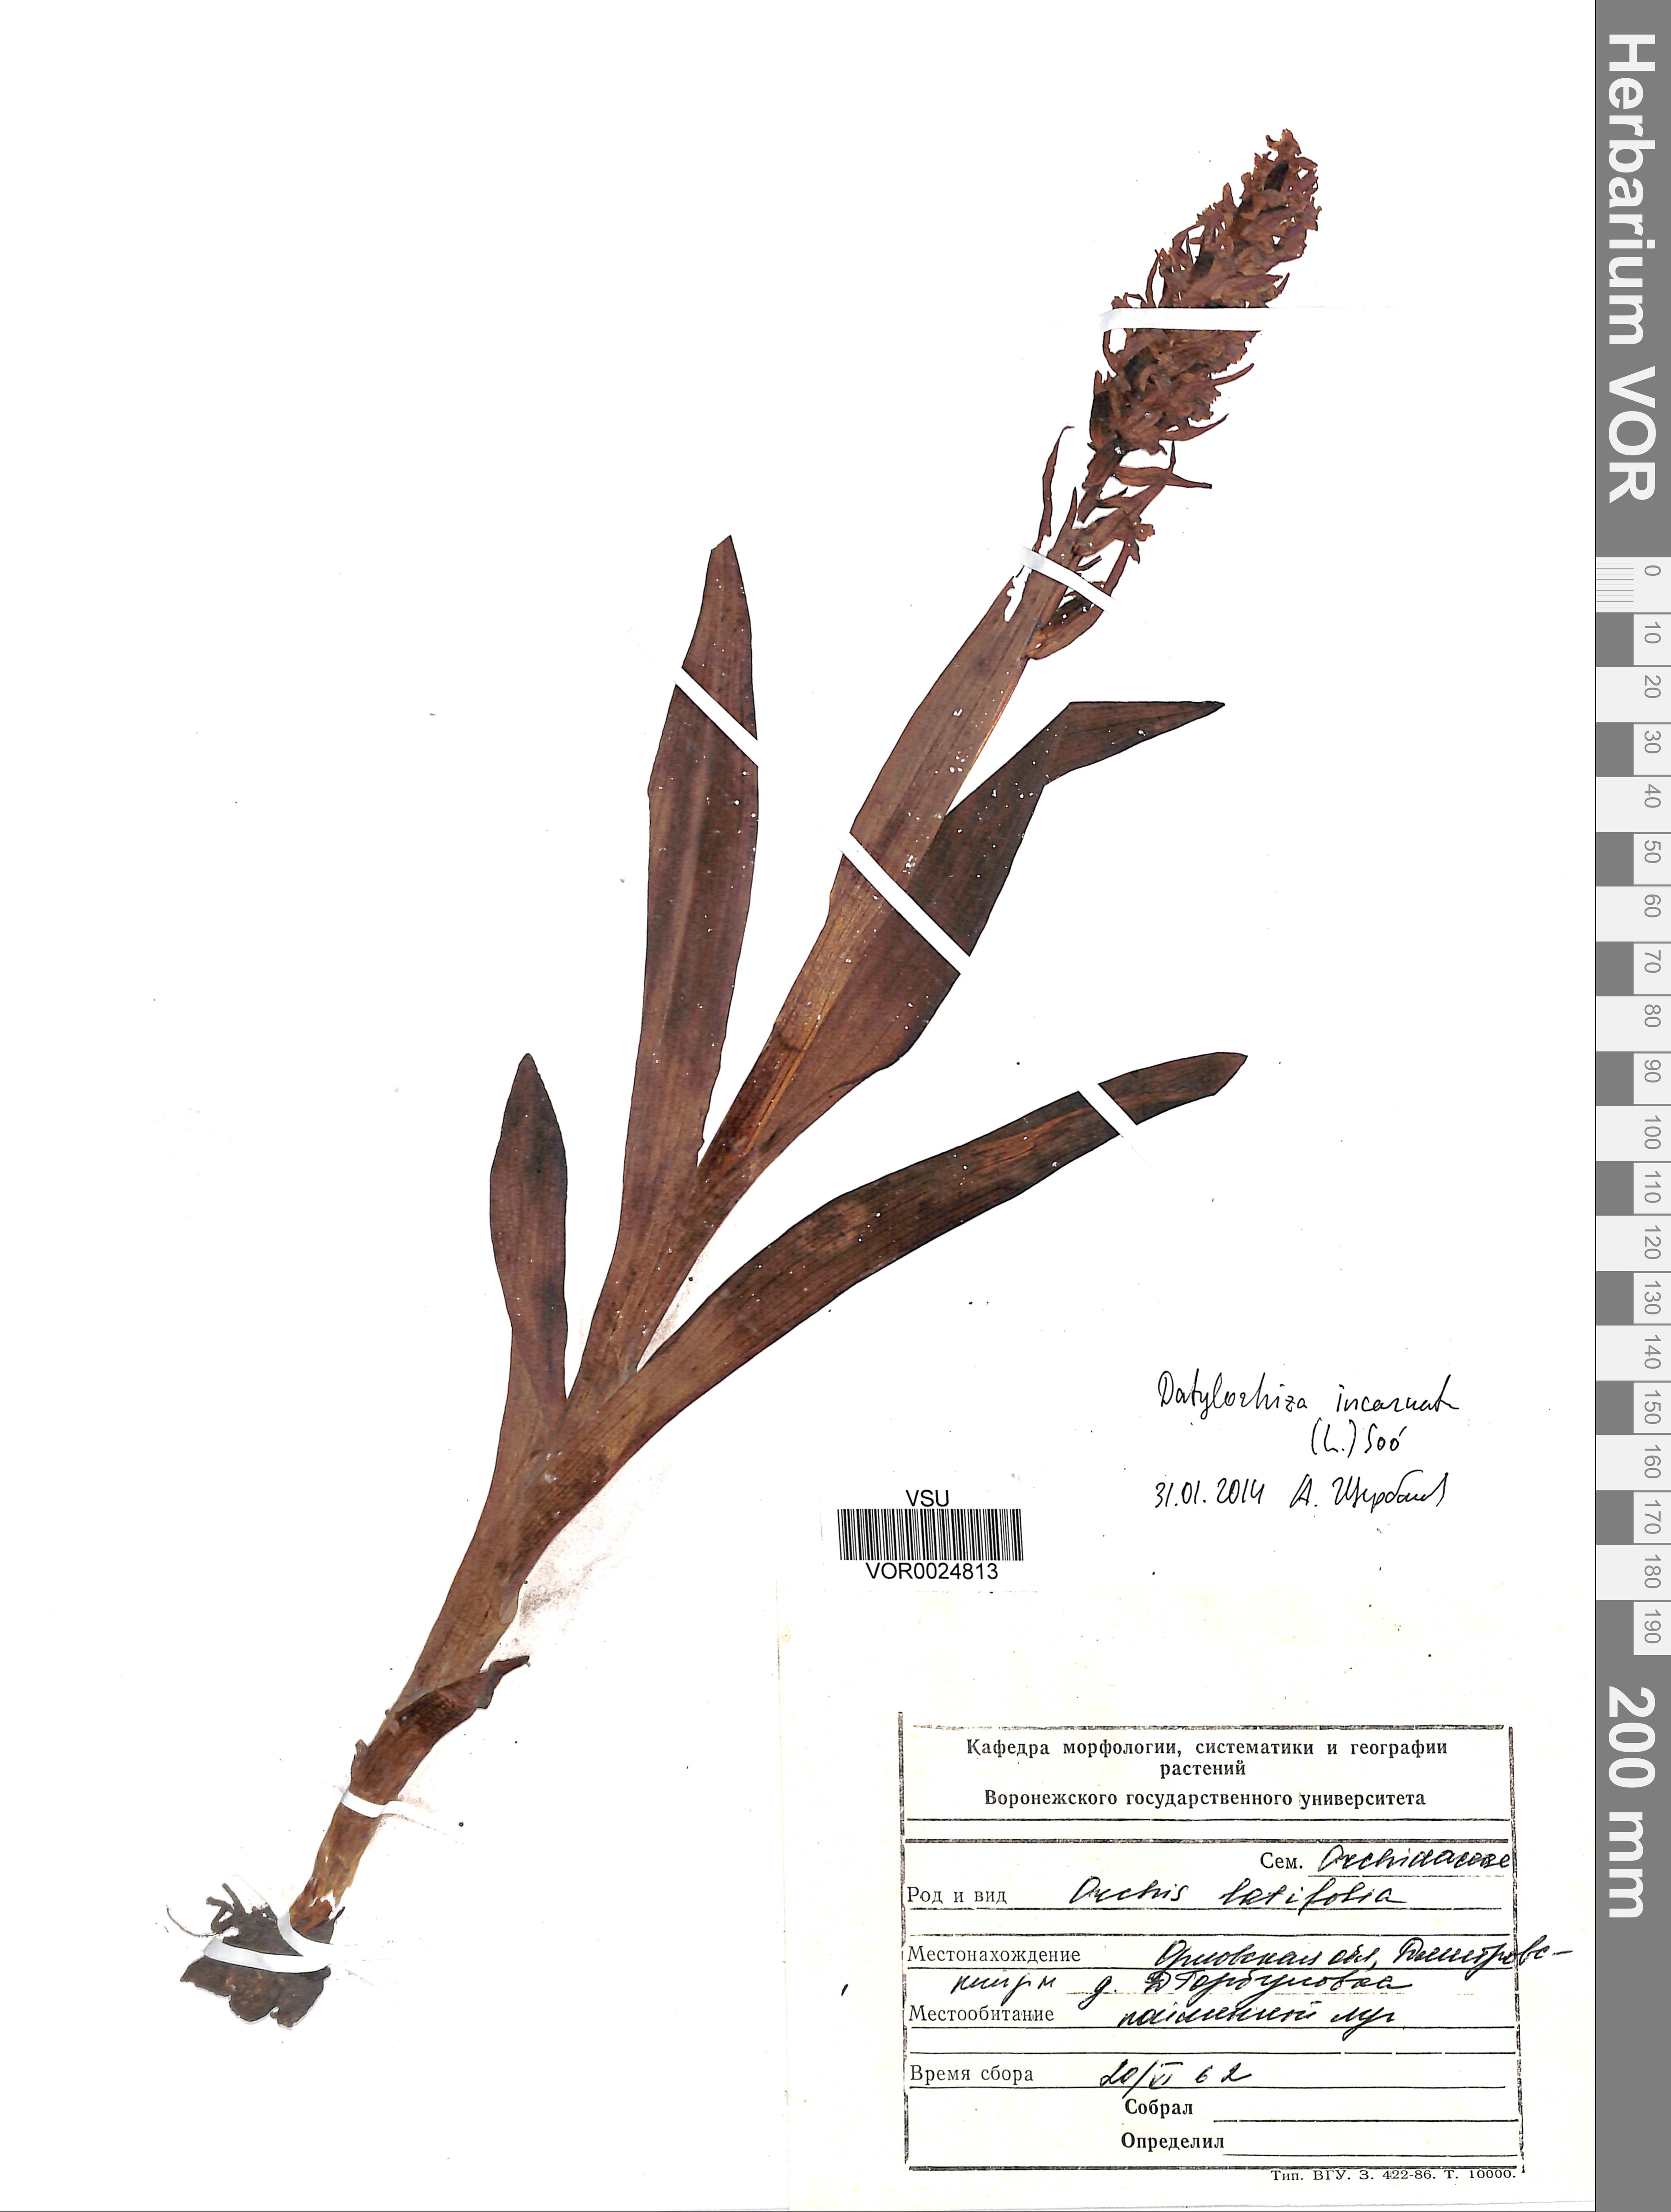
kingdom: Plantae
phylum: Tracheophyta
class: Liliopsida
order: Asparagales
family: Orchidaceae
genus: Dactylorhiza
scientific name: Dactylorhiza incarnata
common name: Early marsh-orchid
